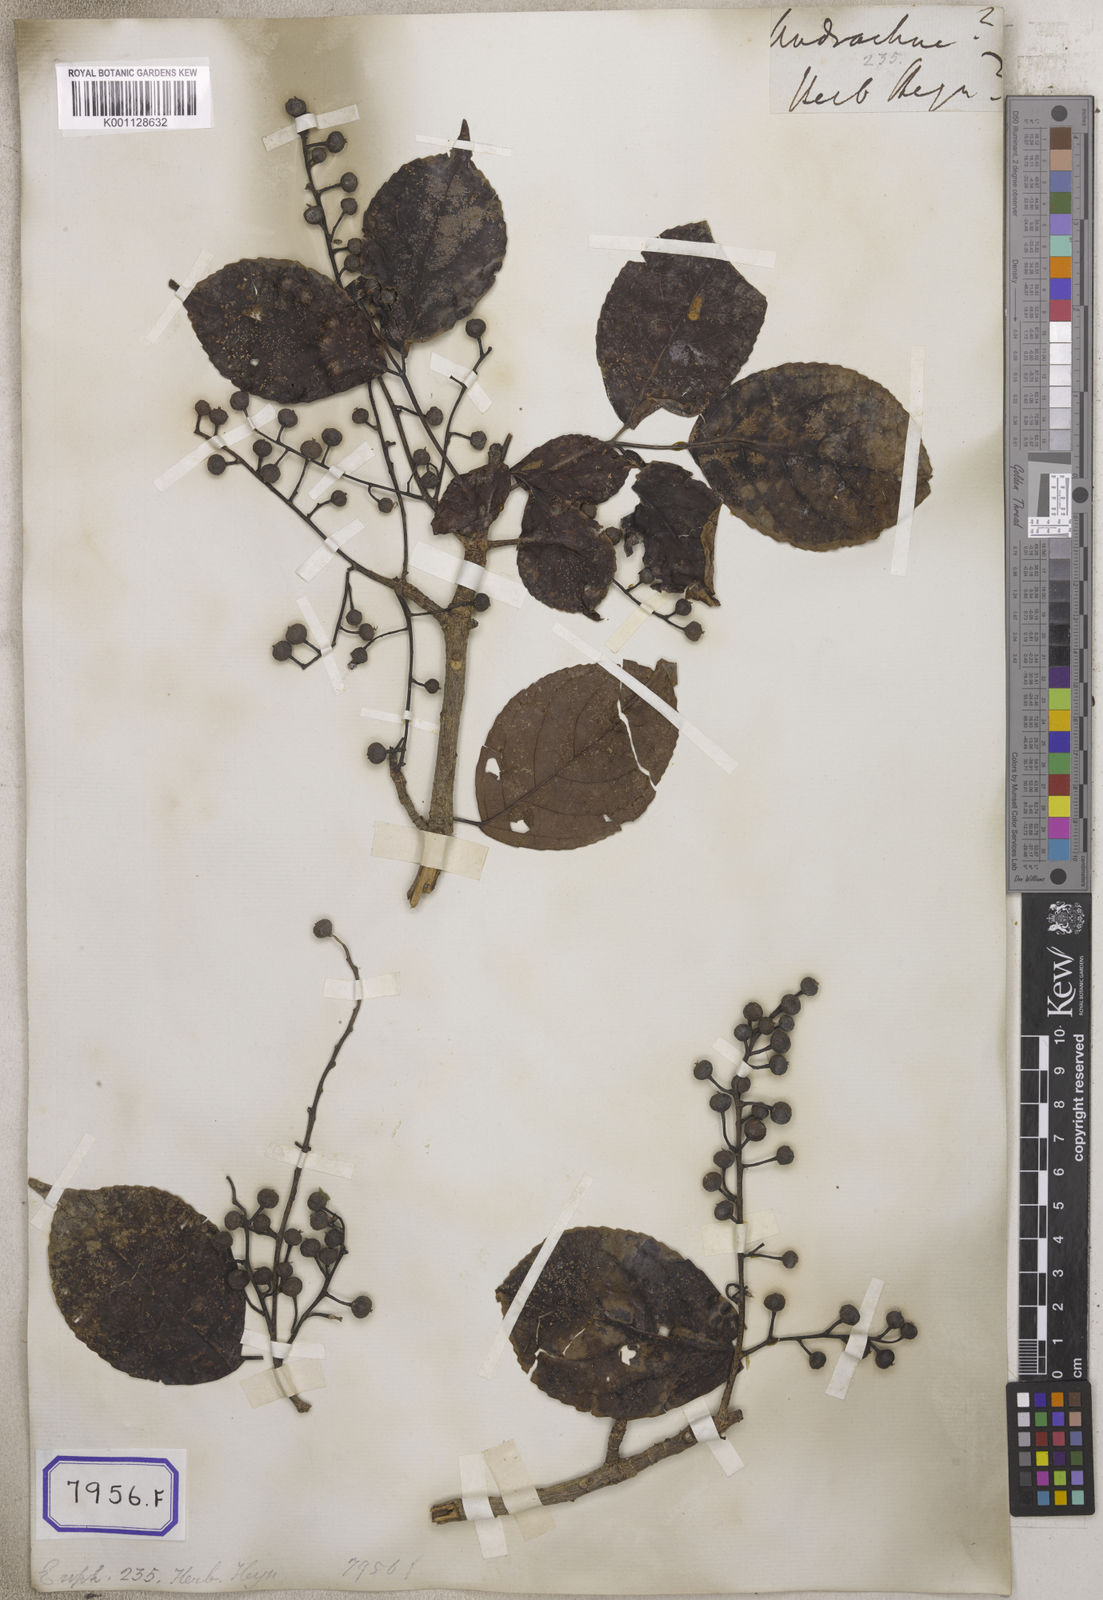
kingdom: Plantae
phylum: Tracheophyta
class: Magnoliopsida
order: Malpighiales
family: Euphorbiaceae
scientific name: Euphorbiaceae
